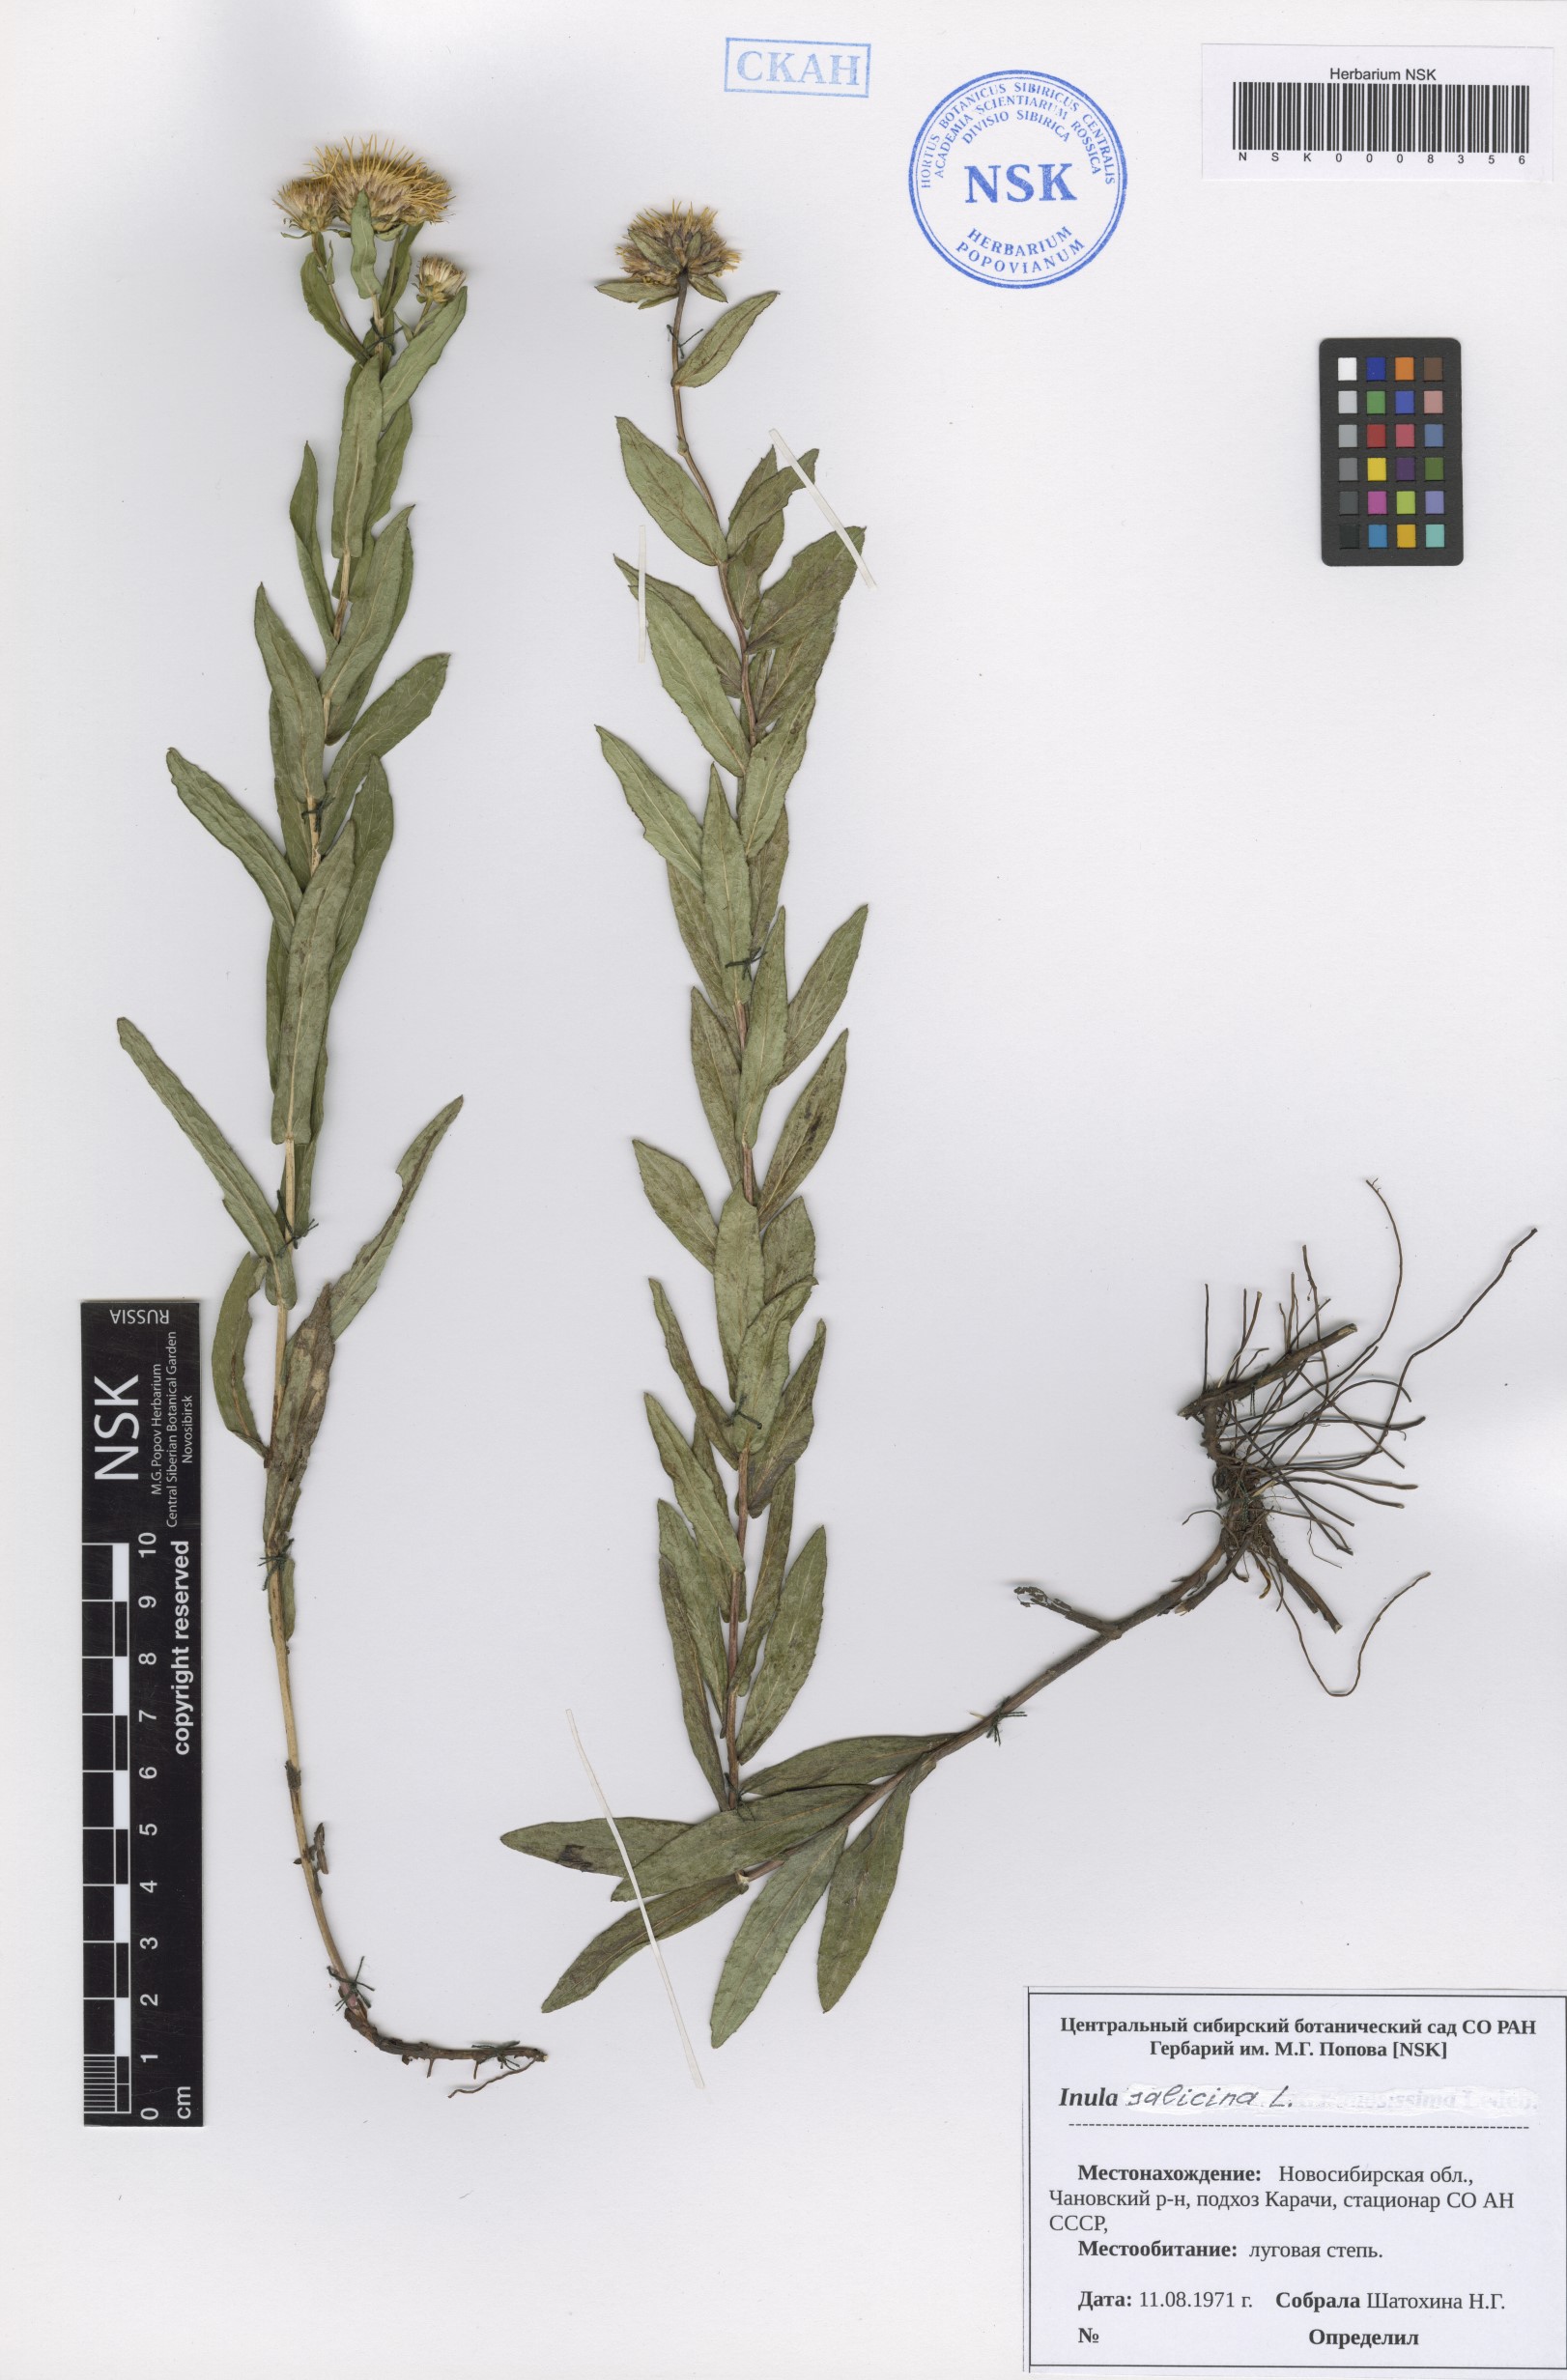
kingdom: Plantae
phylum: Tracheophyta
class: Magnoliopsida
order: Asterales
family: Asteraceae
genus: Pentanema
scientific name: Pentanema salicinum
